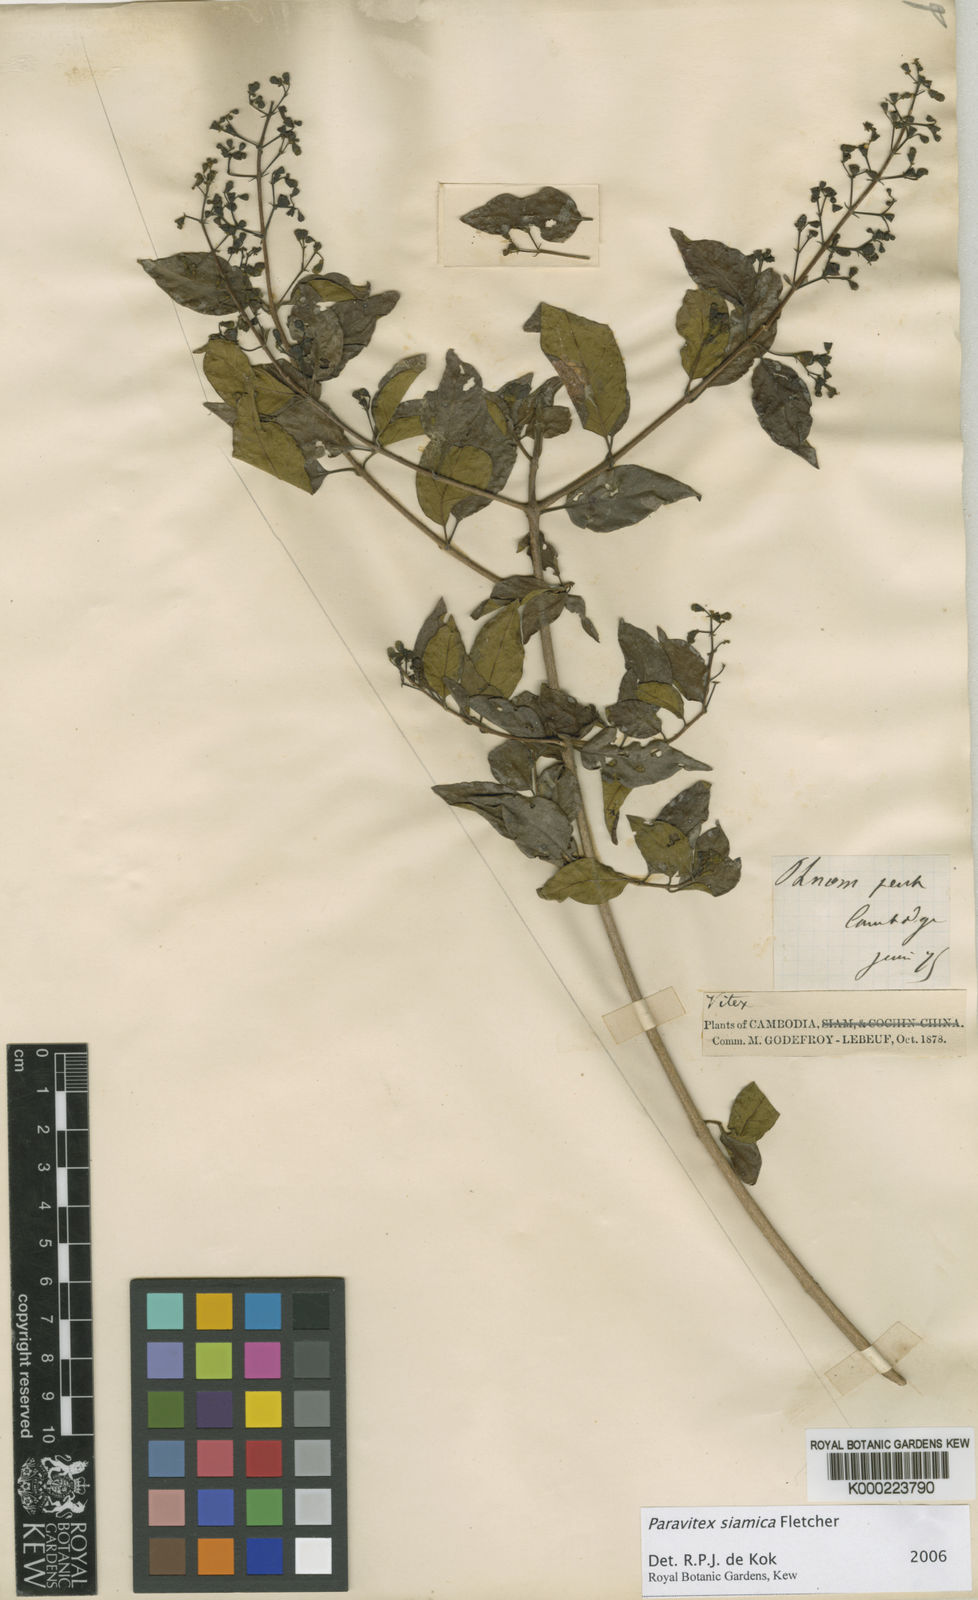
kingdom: Plantae
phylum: Tracheophyta
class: Magnoliopsida
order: Lamiales
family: Lamiaceae
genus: Vitex
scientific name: Vitex thailandica
